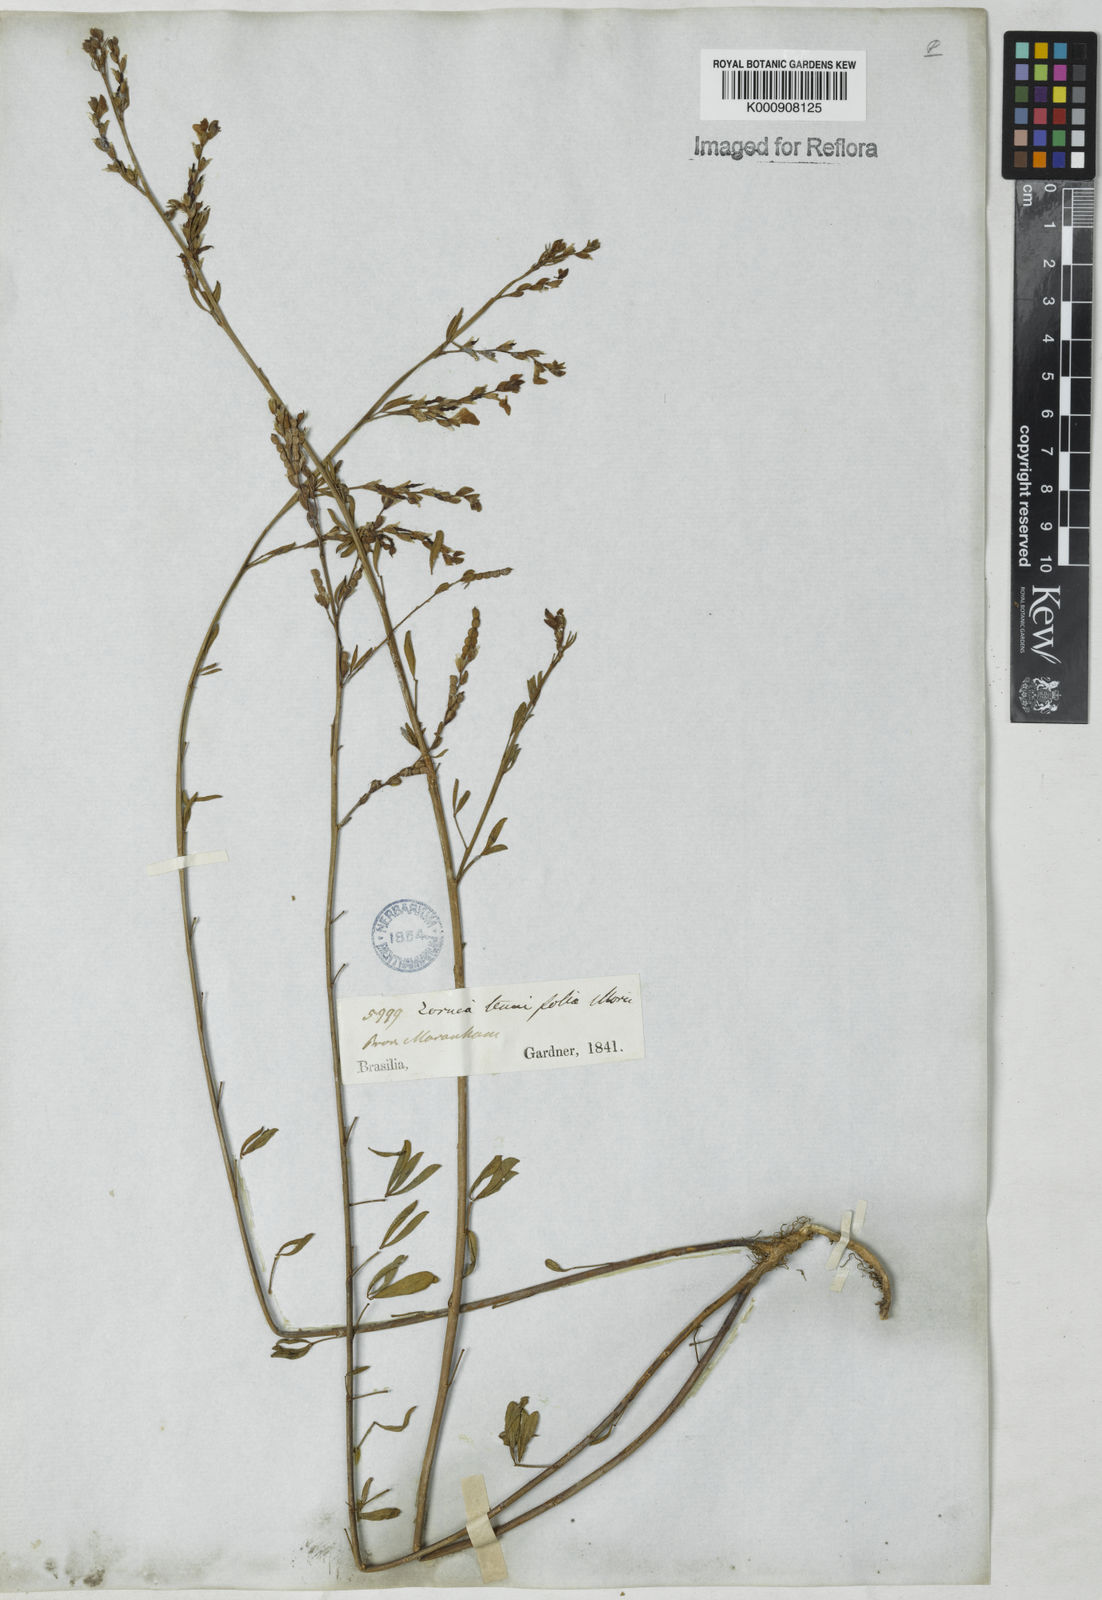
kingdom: Plantae
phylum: Tracheophyta
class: Magnoliopsida
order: Fabales
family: Fabaceae
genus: Zornia
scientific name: Zornia tenuifolia
